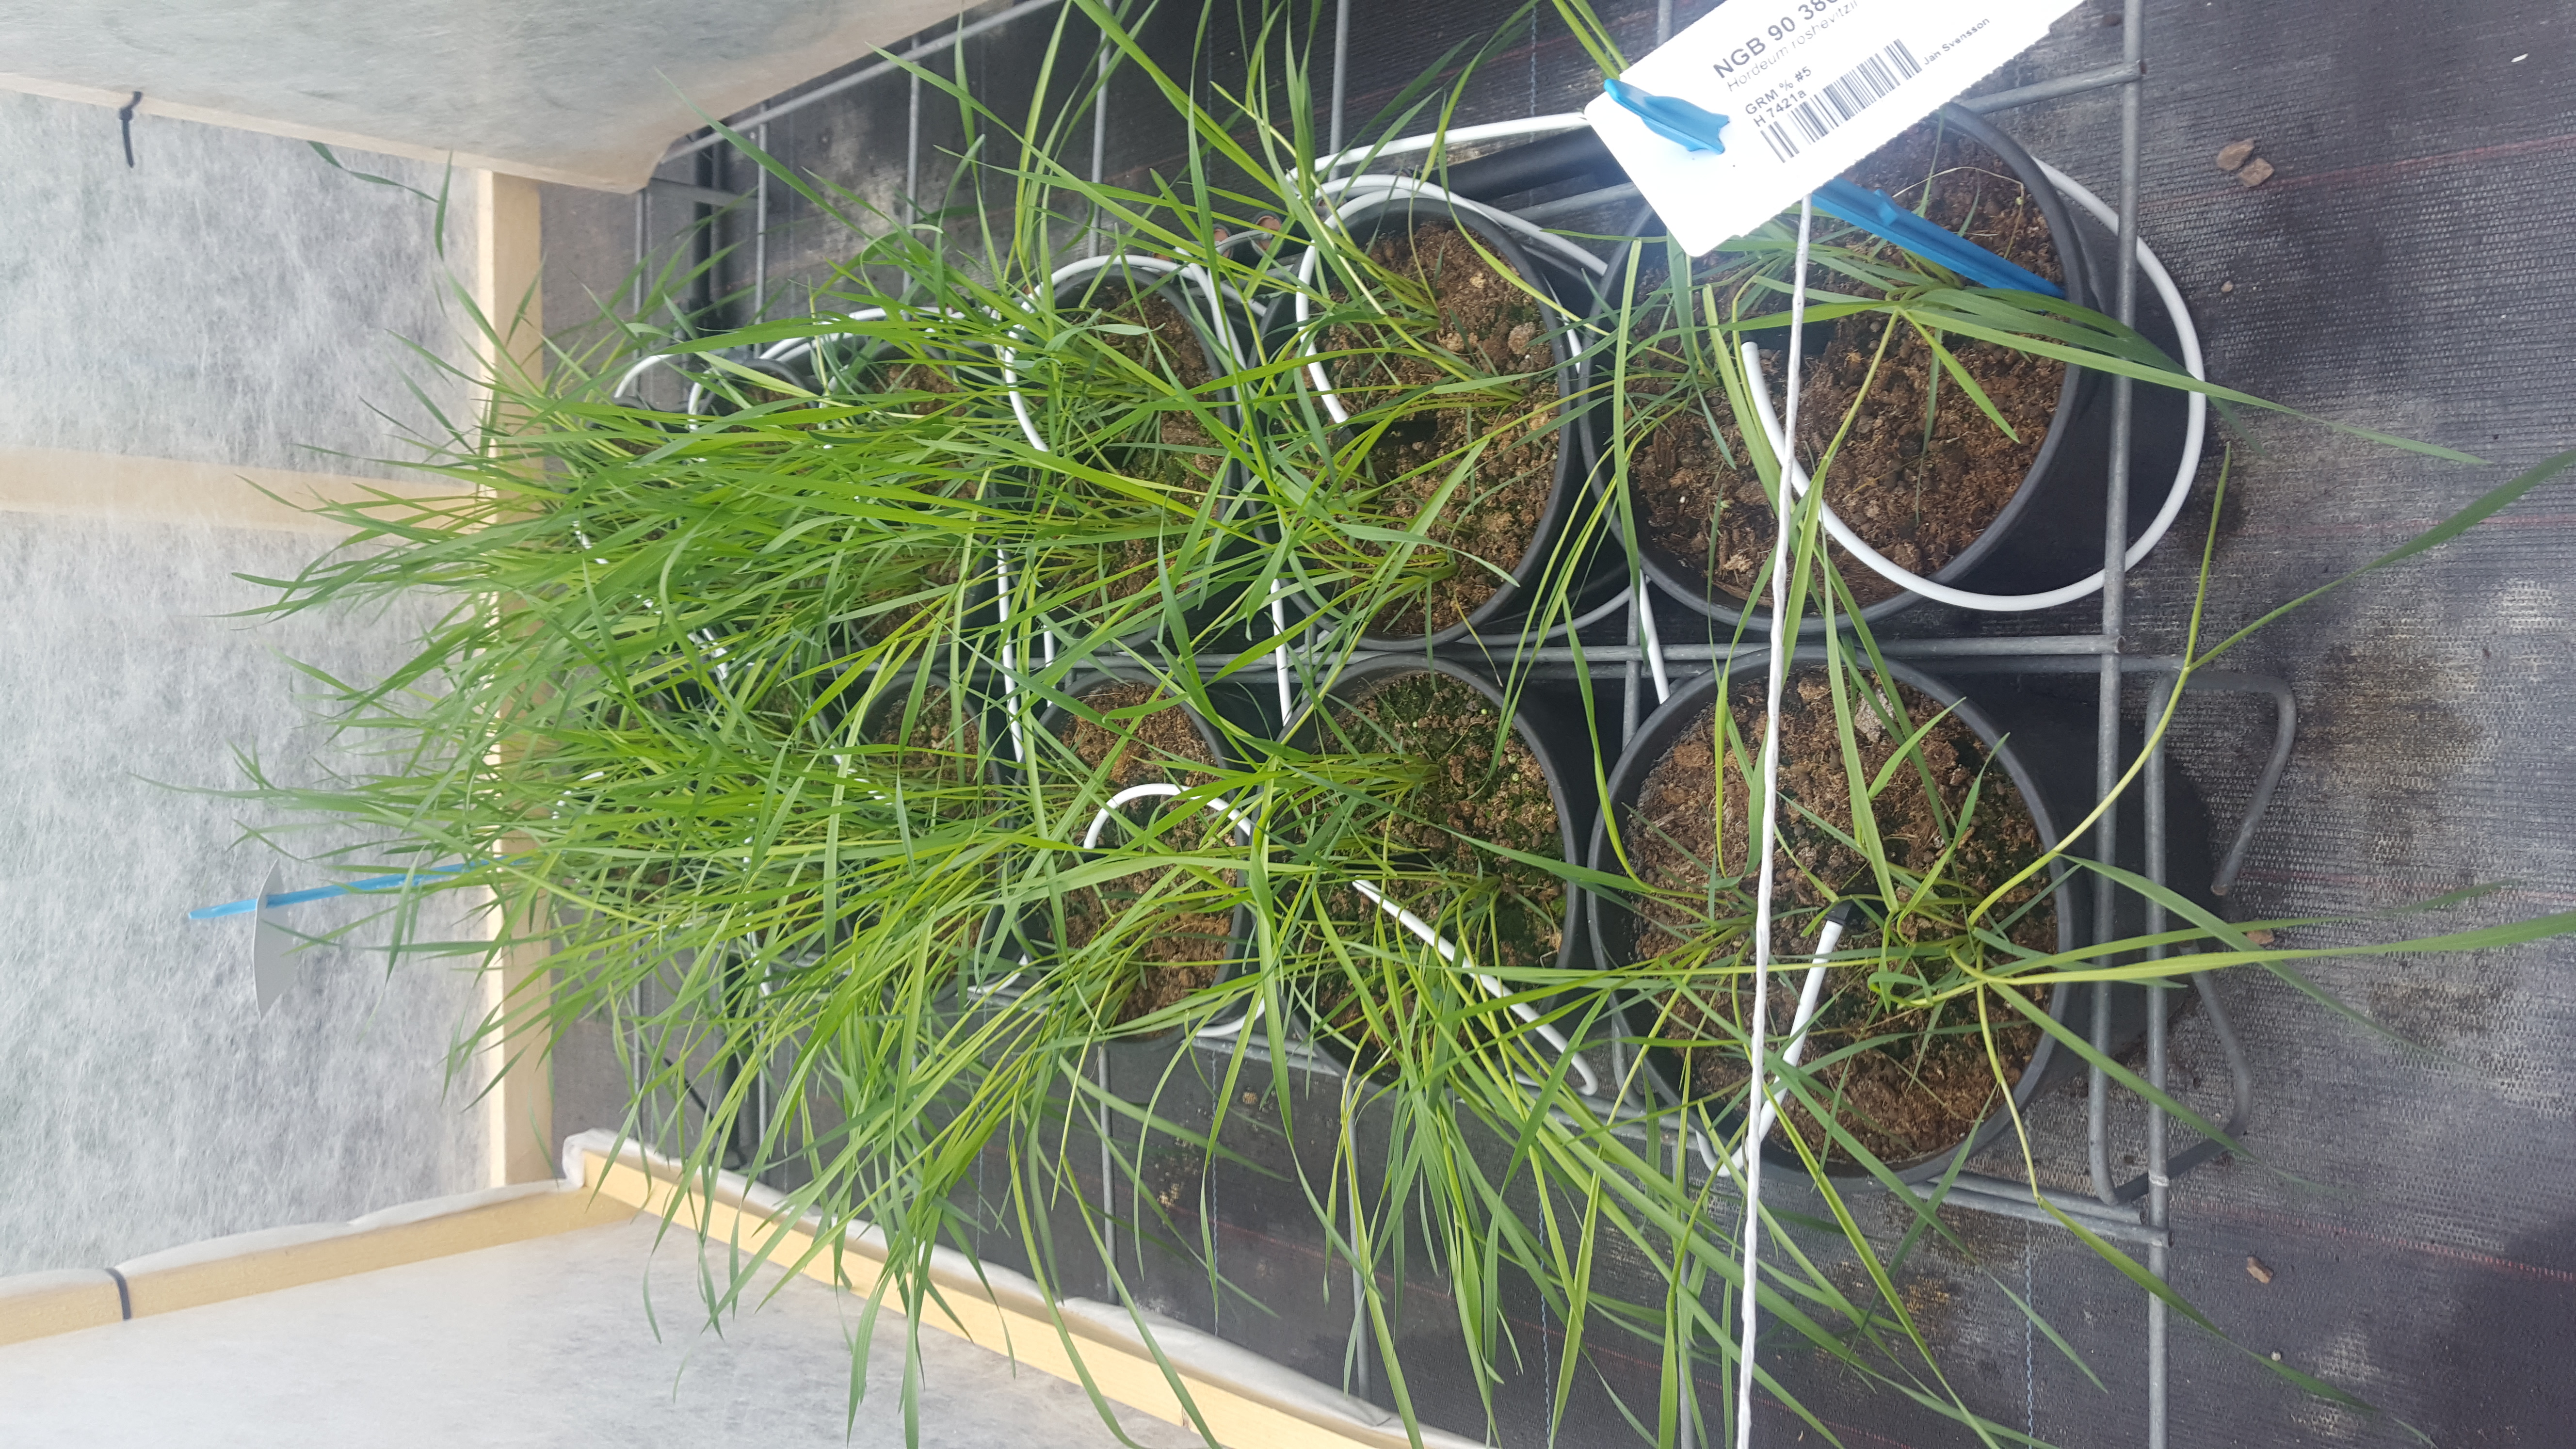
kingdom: Plantae
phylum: Tracheophyta
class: Liliopsida
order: Poales
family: Poaceae
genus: Hordeum
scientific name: Hordeum roshevitzii
